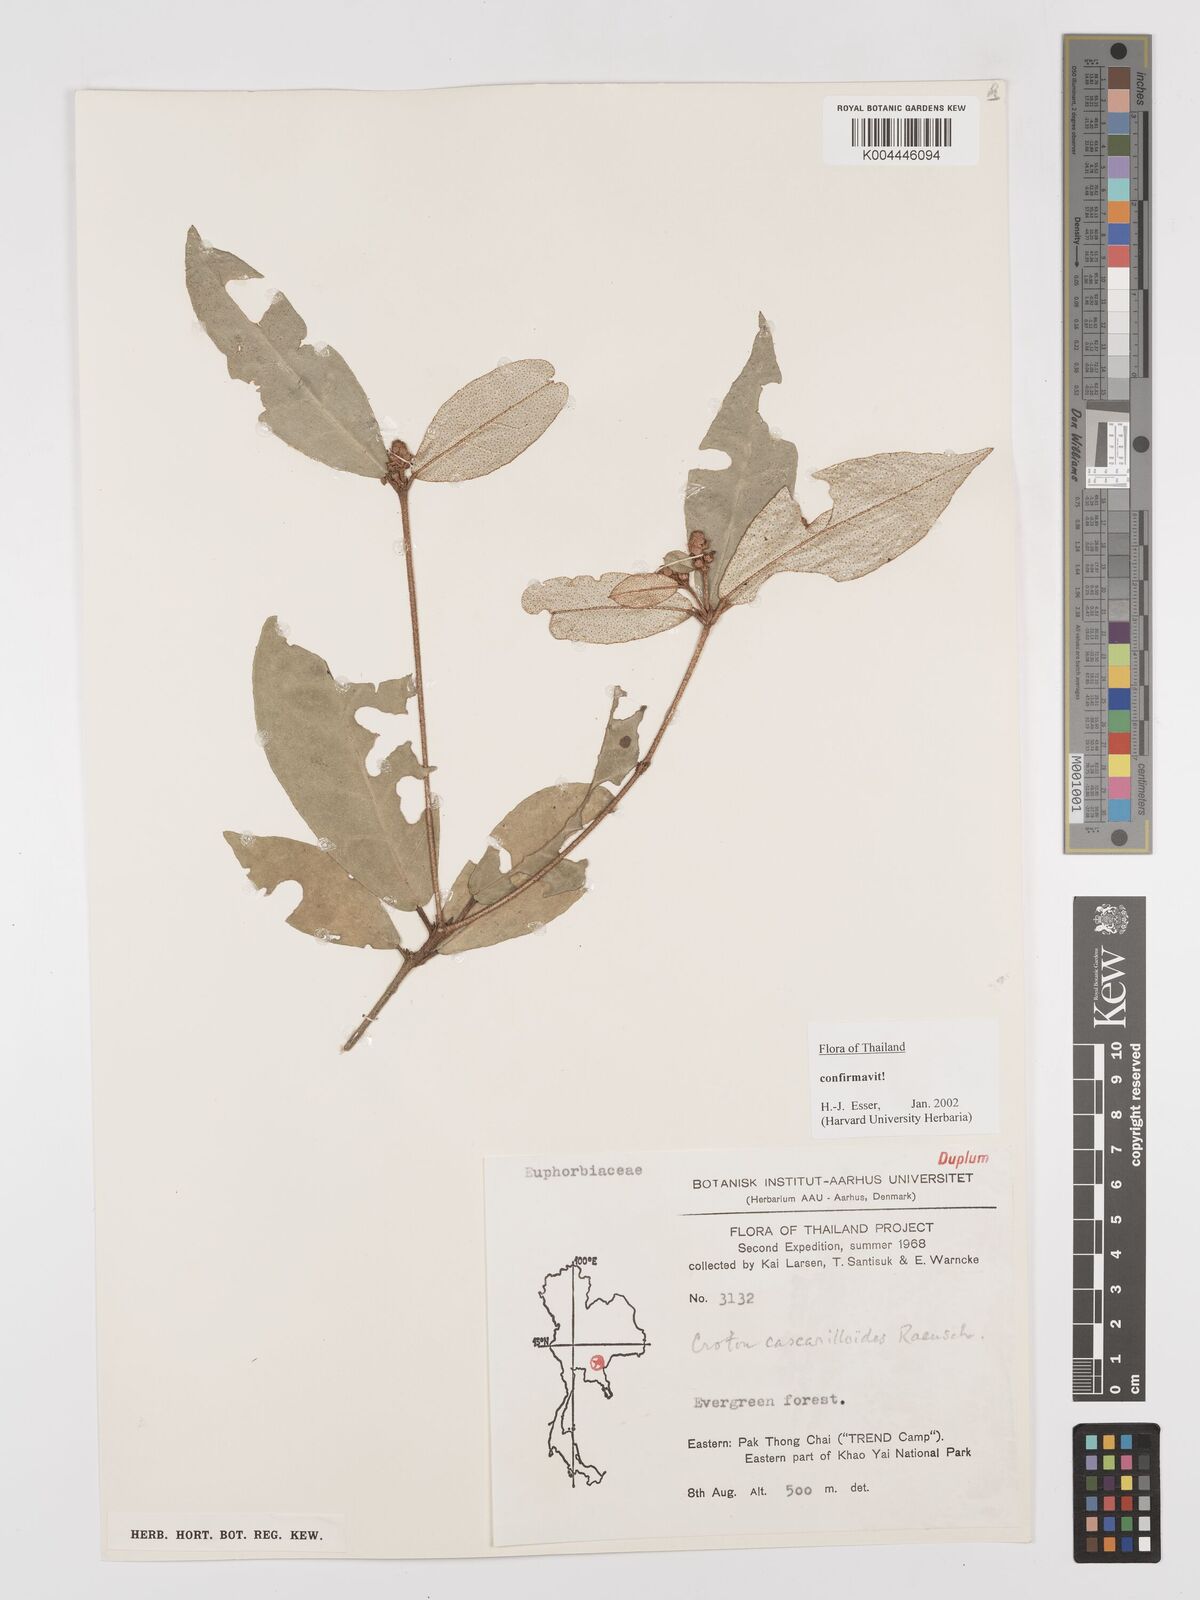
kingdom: Plantae
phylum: Tracheophyta
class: Magnoliopsida
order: Malpighiales
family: Euphorbiaceae
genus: Croton
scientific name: Croton cascarilloides
